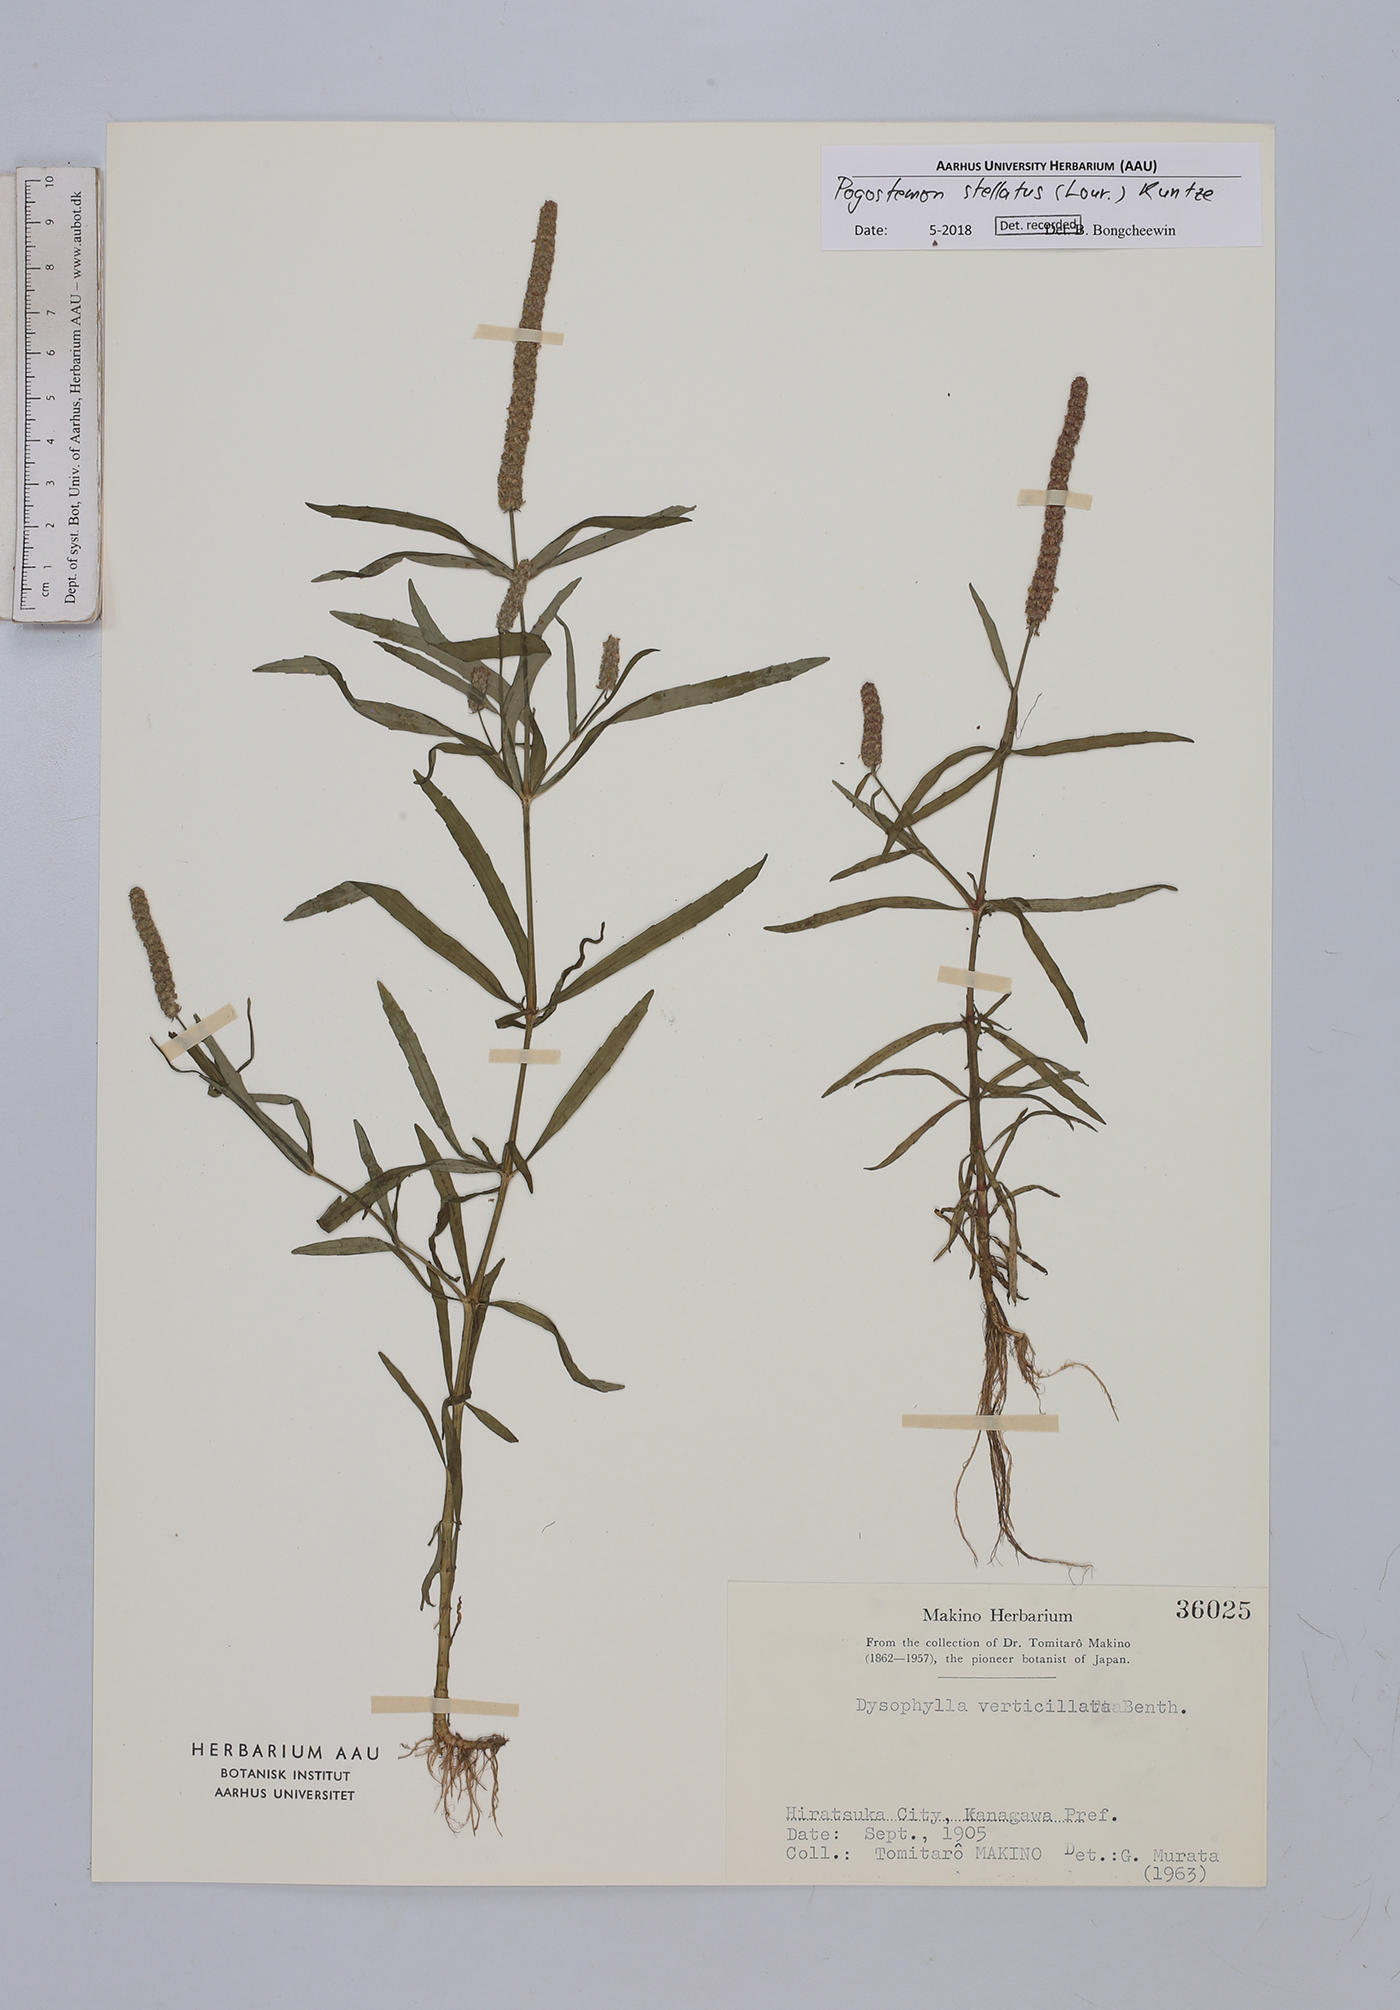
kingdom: Plantae
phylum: Tracheophyta
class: Magnoliopsida
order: Lamiales
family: Lamiaceae
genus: Pogostemon
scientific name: Pogostemon stellatus
